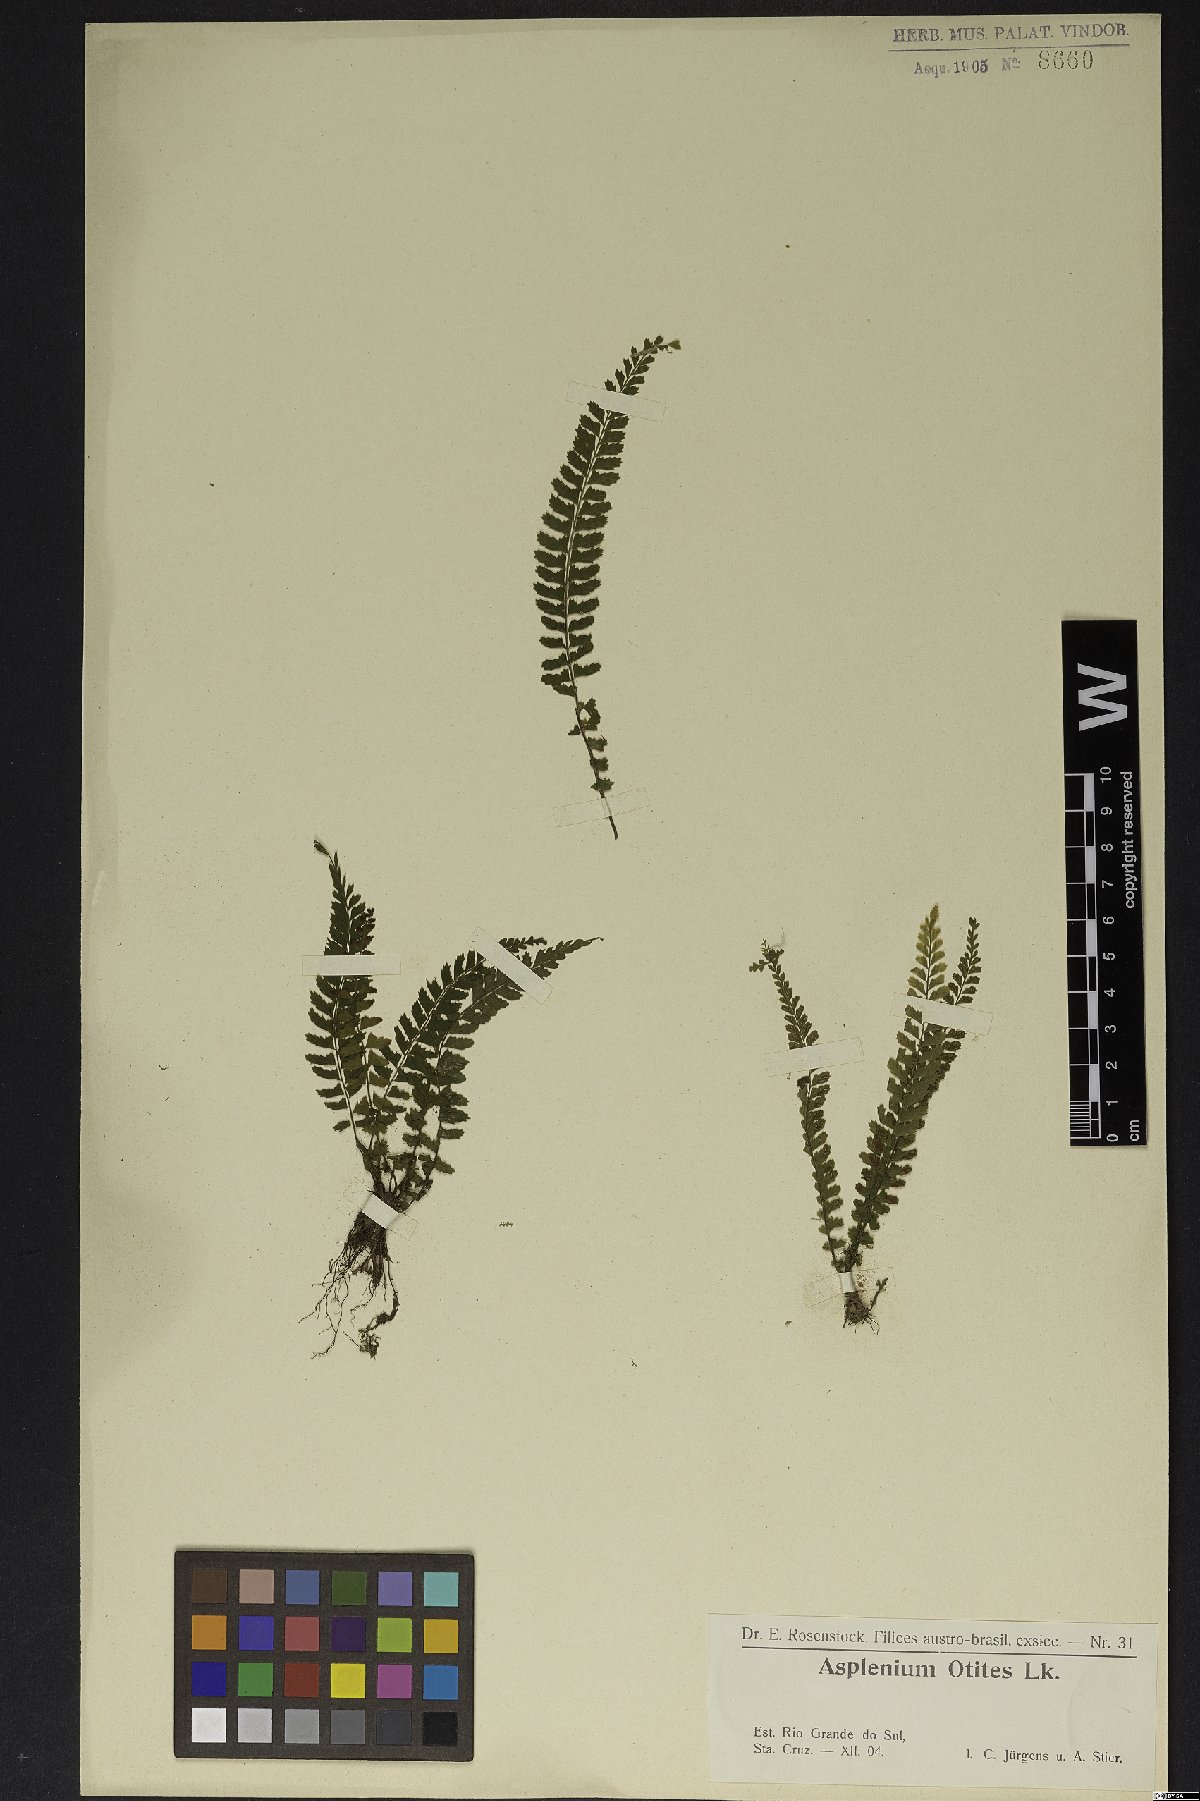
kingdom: Plantae
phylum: Tracheophyta
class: Polypodiopsida
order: Polypodiales
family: Aspleniaceae
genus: Asplenium
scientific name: Asplenium pulchellum
